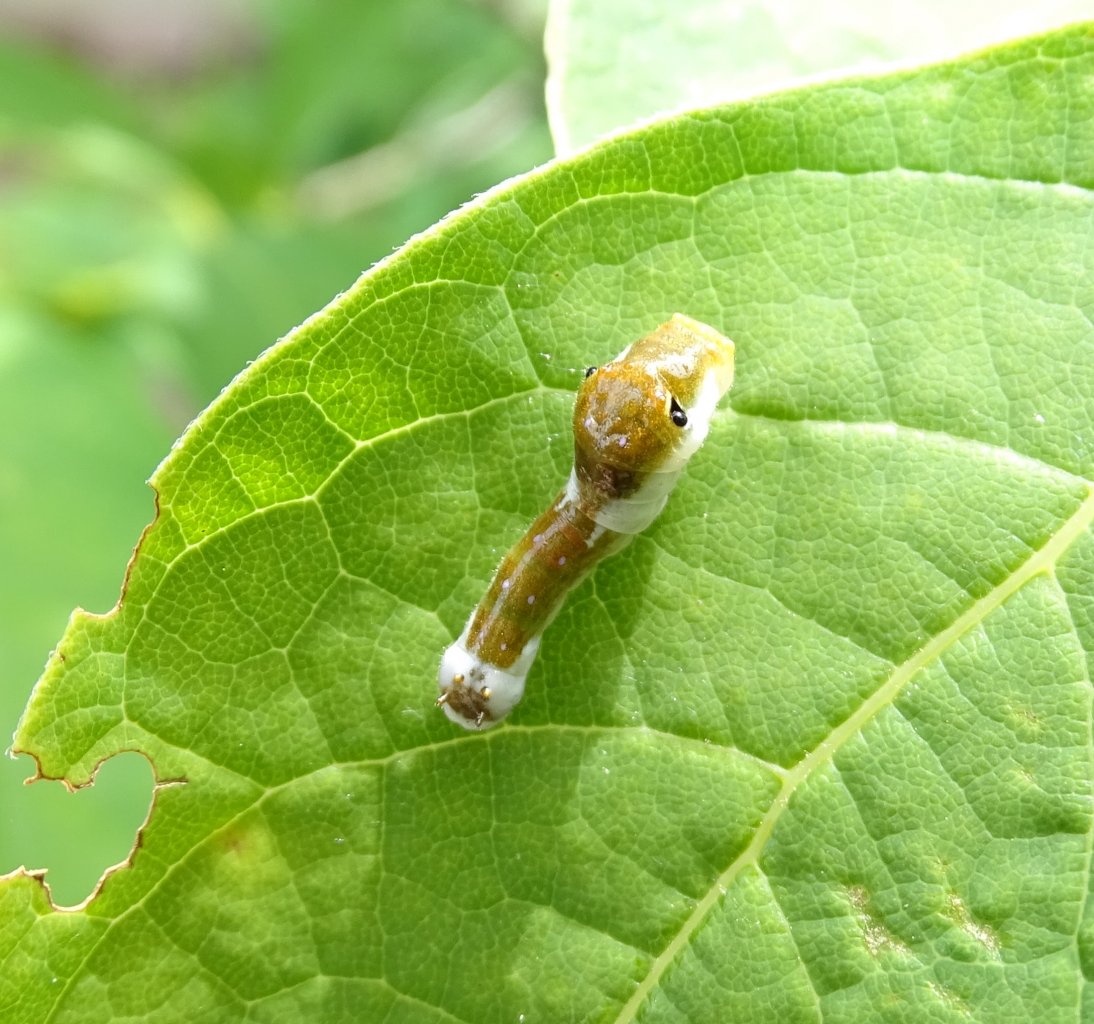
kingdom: Animalia
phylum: Arthropoda
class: Insecta
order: Lepidoptera
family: Papilionidae
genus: Pterourus
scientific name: Pterourus troilus
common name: Spicebush Swallowtail
